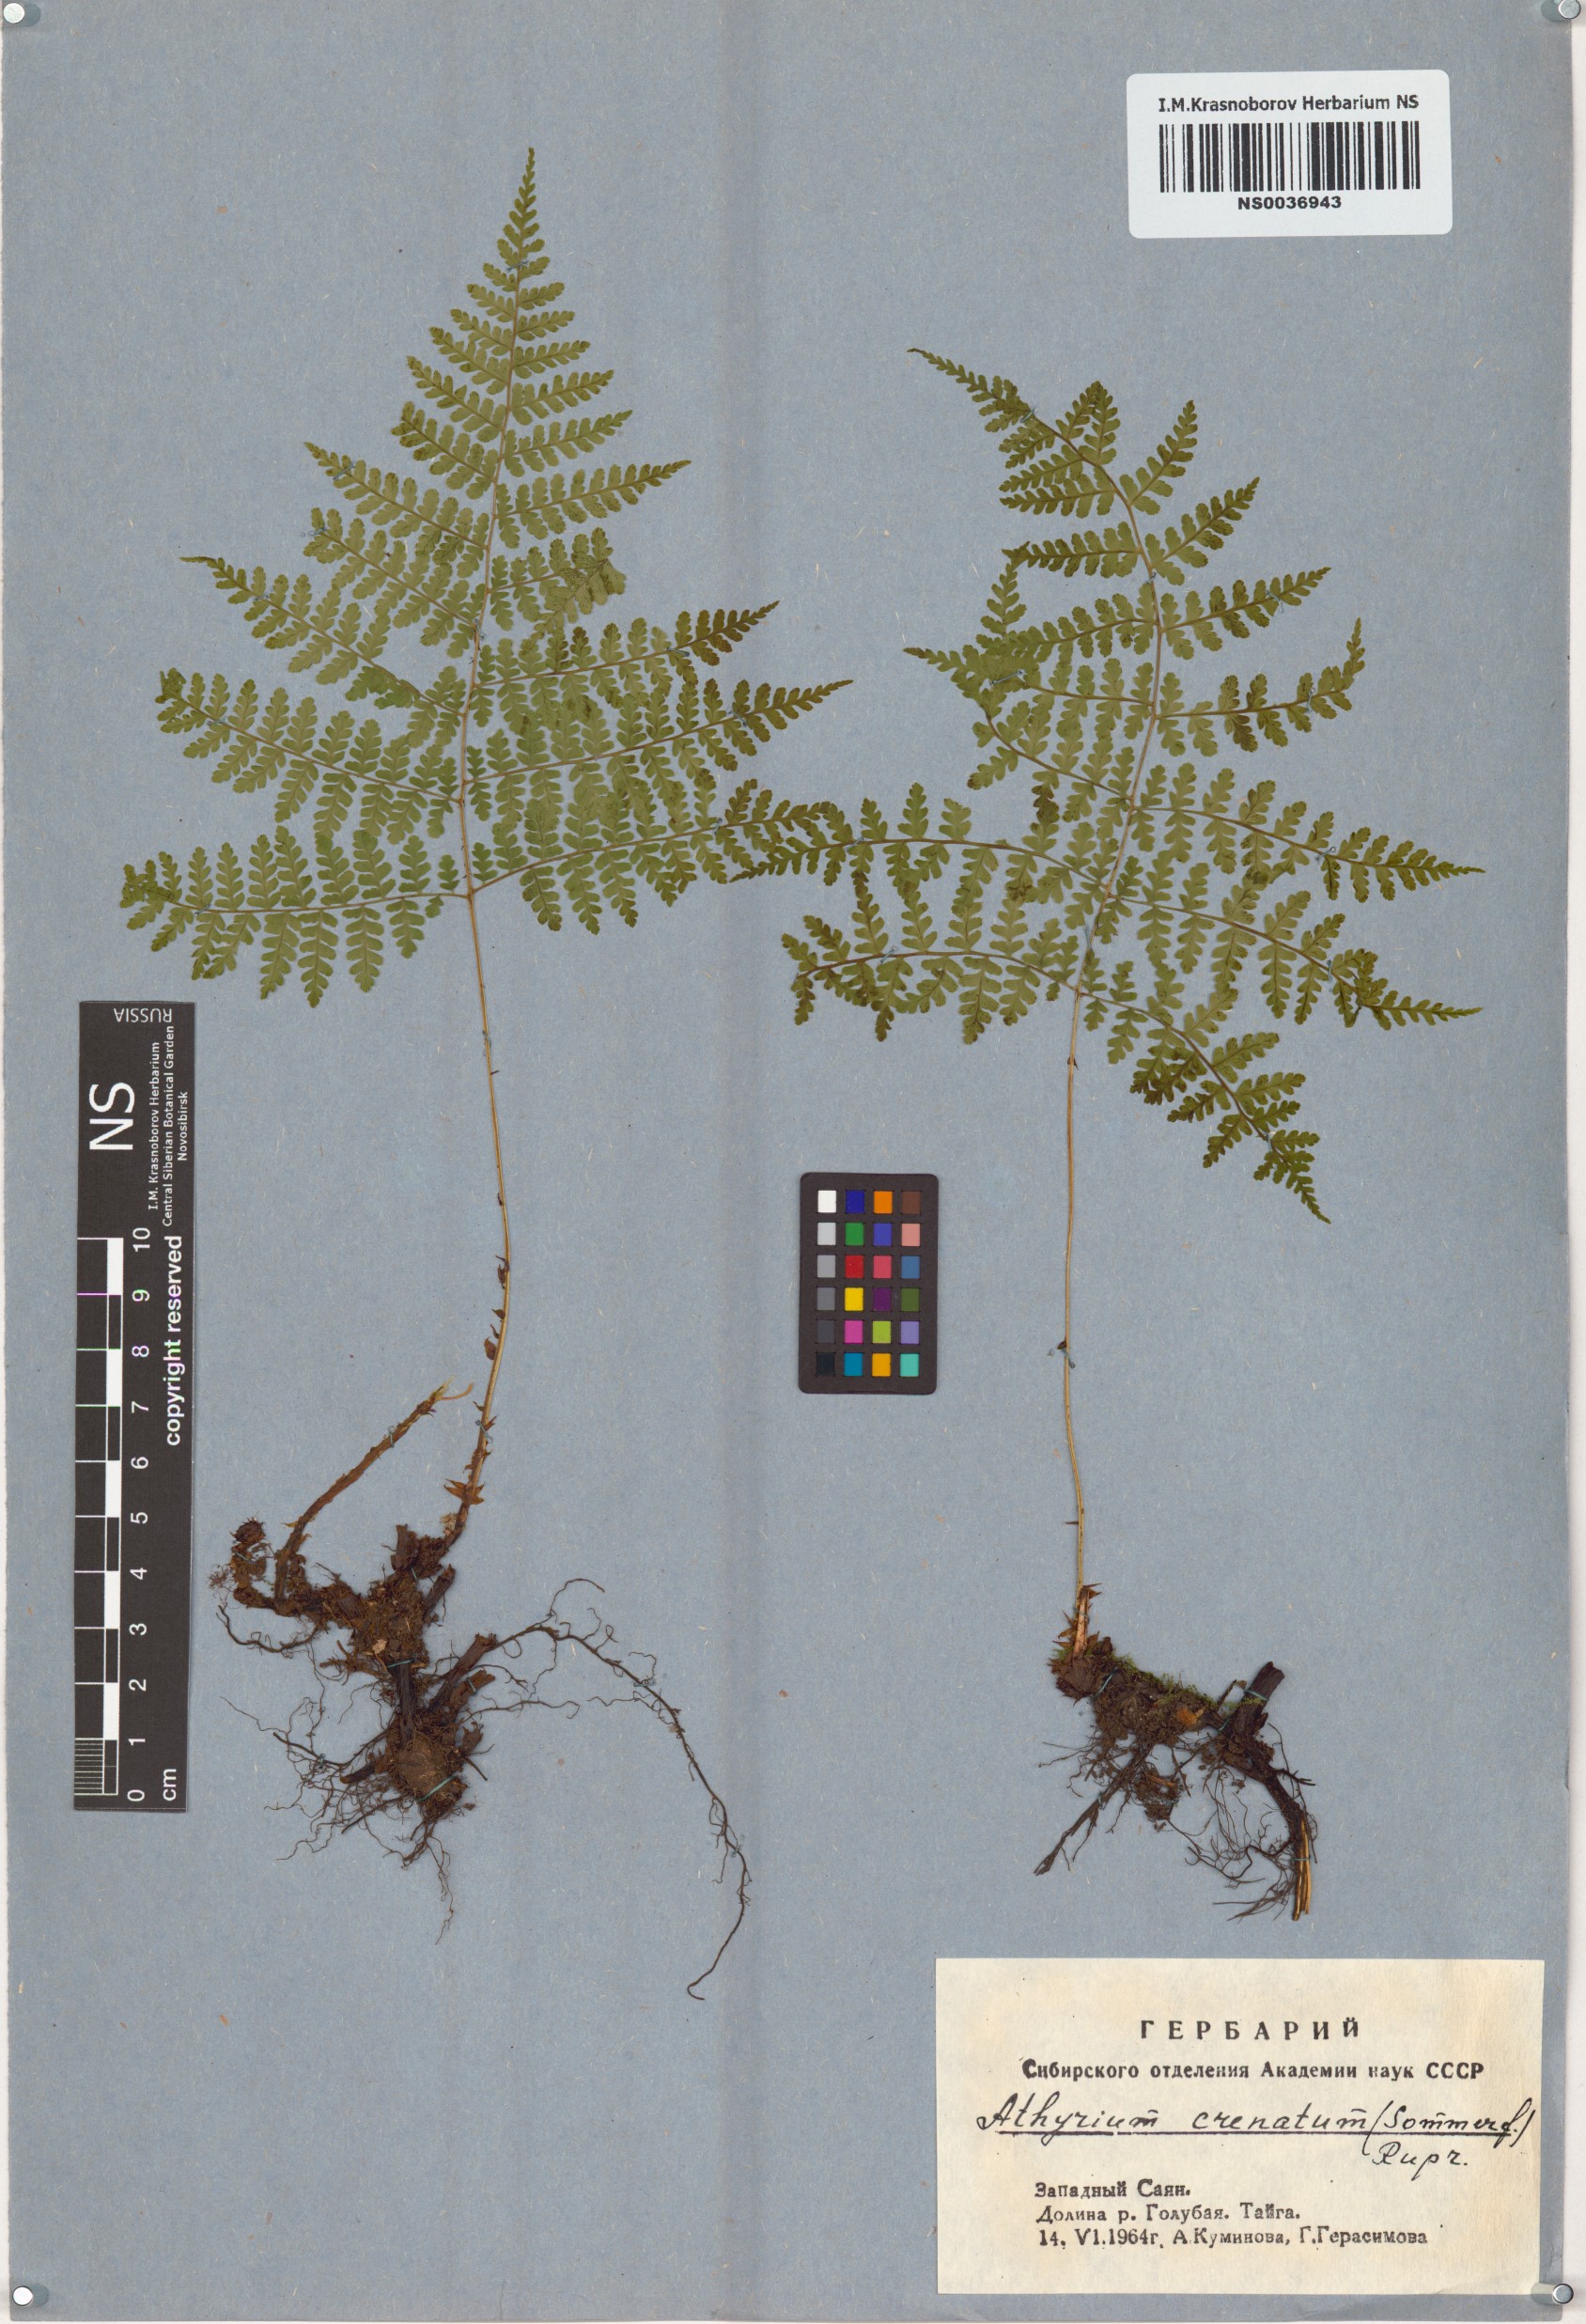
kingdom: Plantae
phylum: Tracheophyta
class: Polypodiopsida
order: Polypodiales
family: Athyriaceae
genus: Diplazium
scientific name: Diplazium sibiricum
